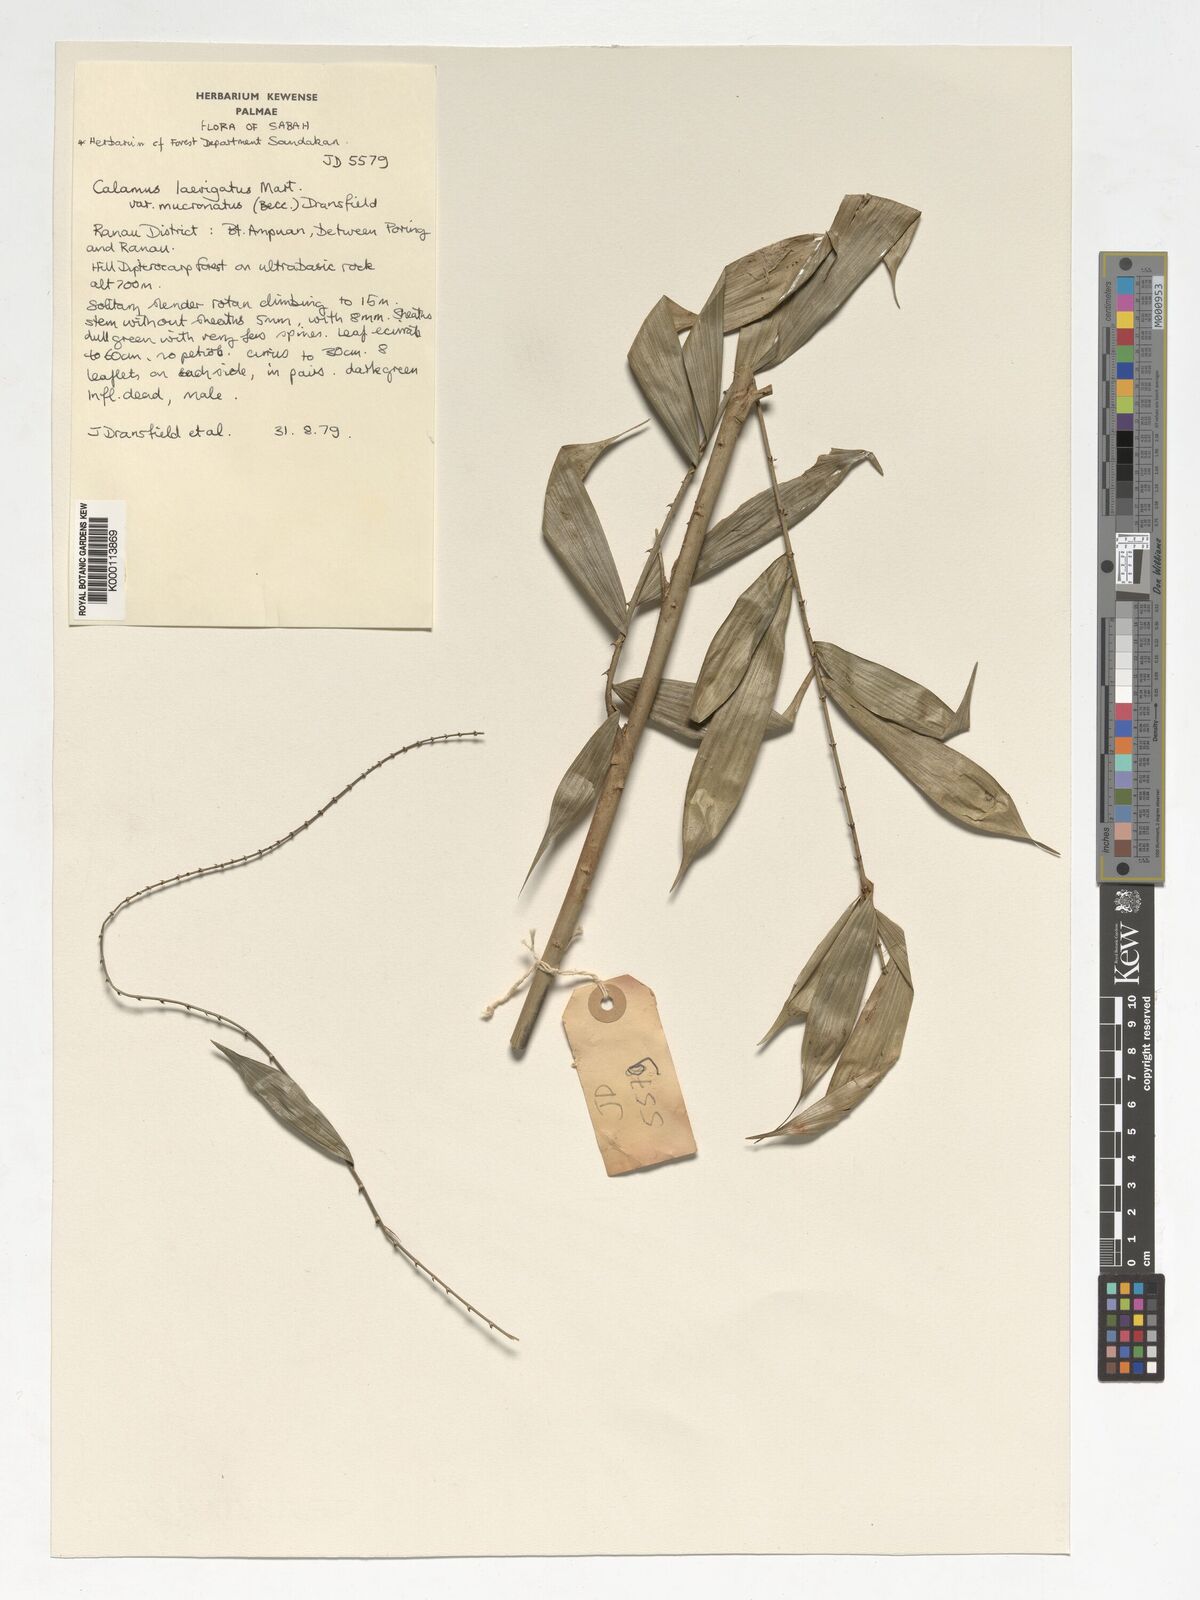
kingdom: Plantae
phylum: Tracheophyta
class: Liliopsida
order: Arecales
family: Arecaceae
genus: Calamus
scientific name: Calamus
